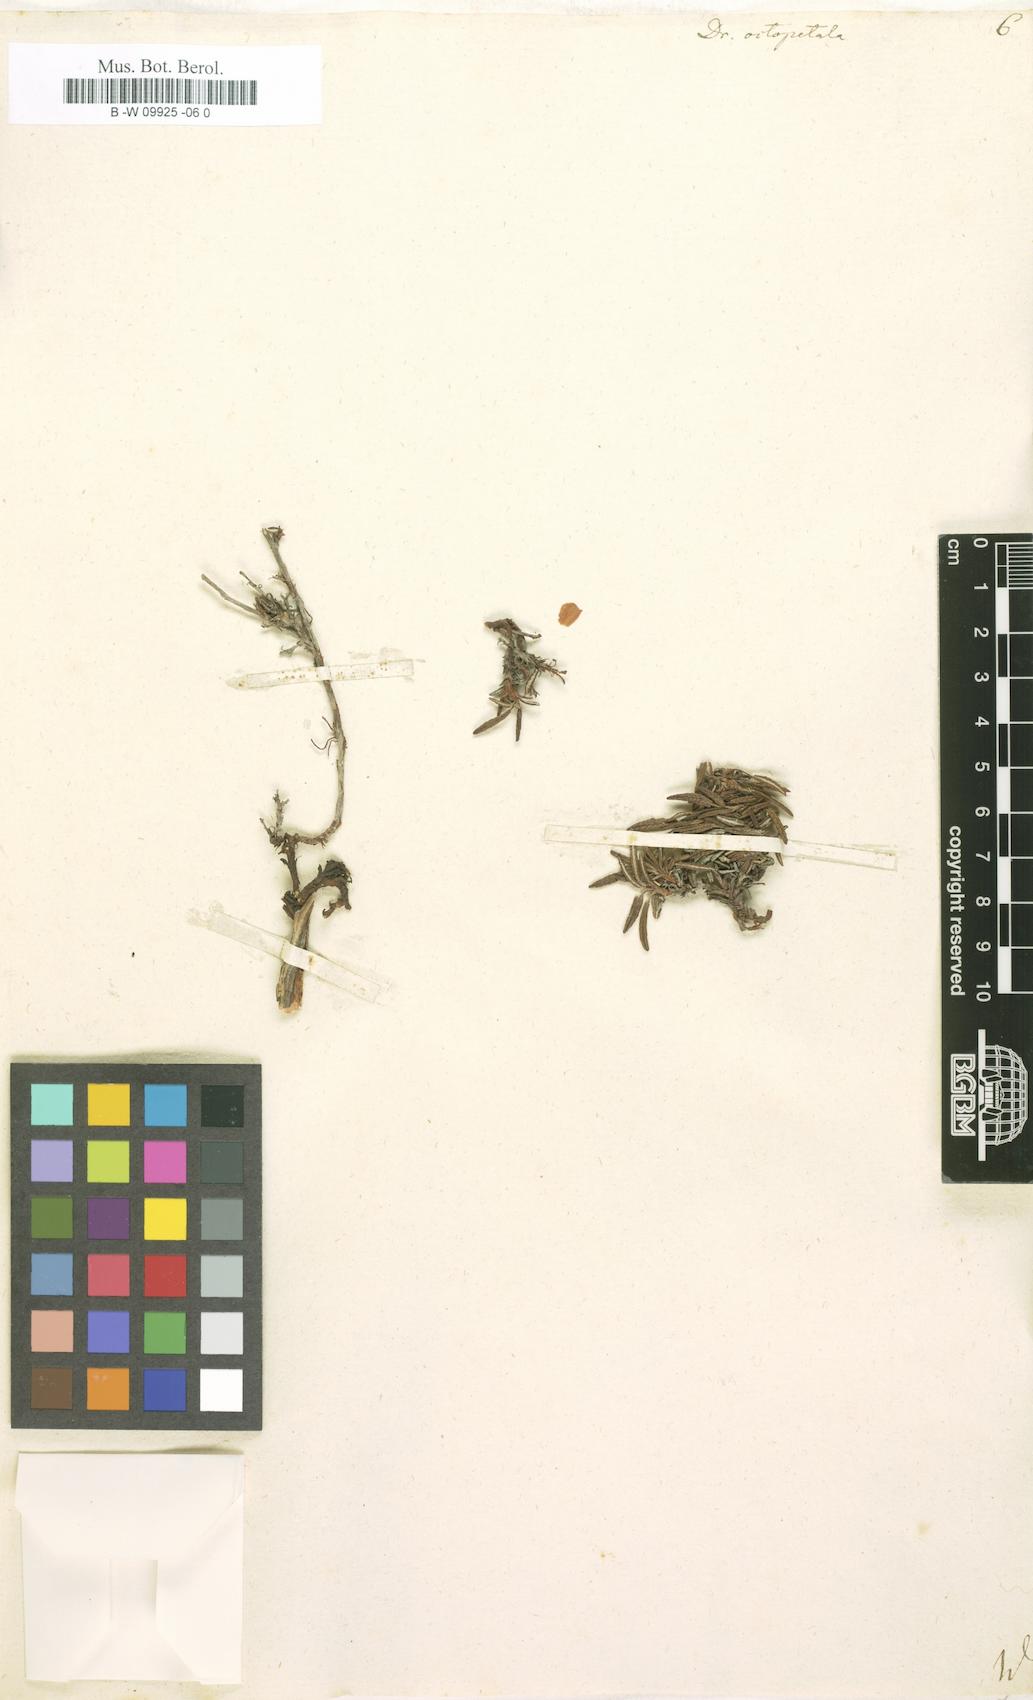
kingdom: Plantae
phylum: Tracheophyta
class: Magnoliopsida
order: Rosales
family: Rosaceae
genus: Dryas
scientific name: Dryas octopetala
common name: Eight-petal mountain-avens
